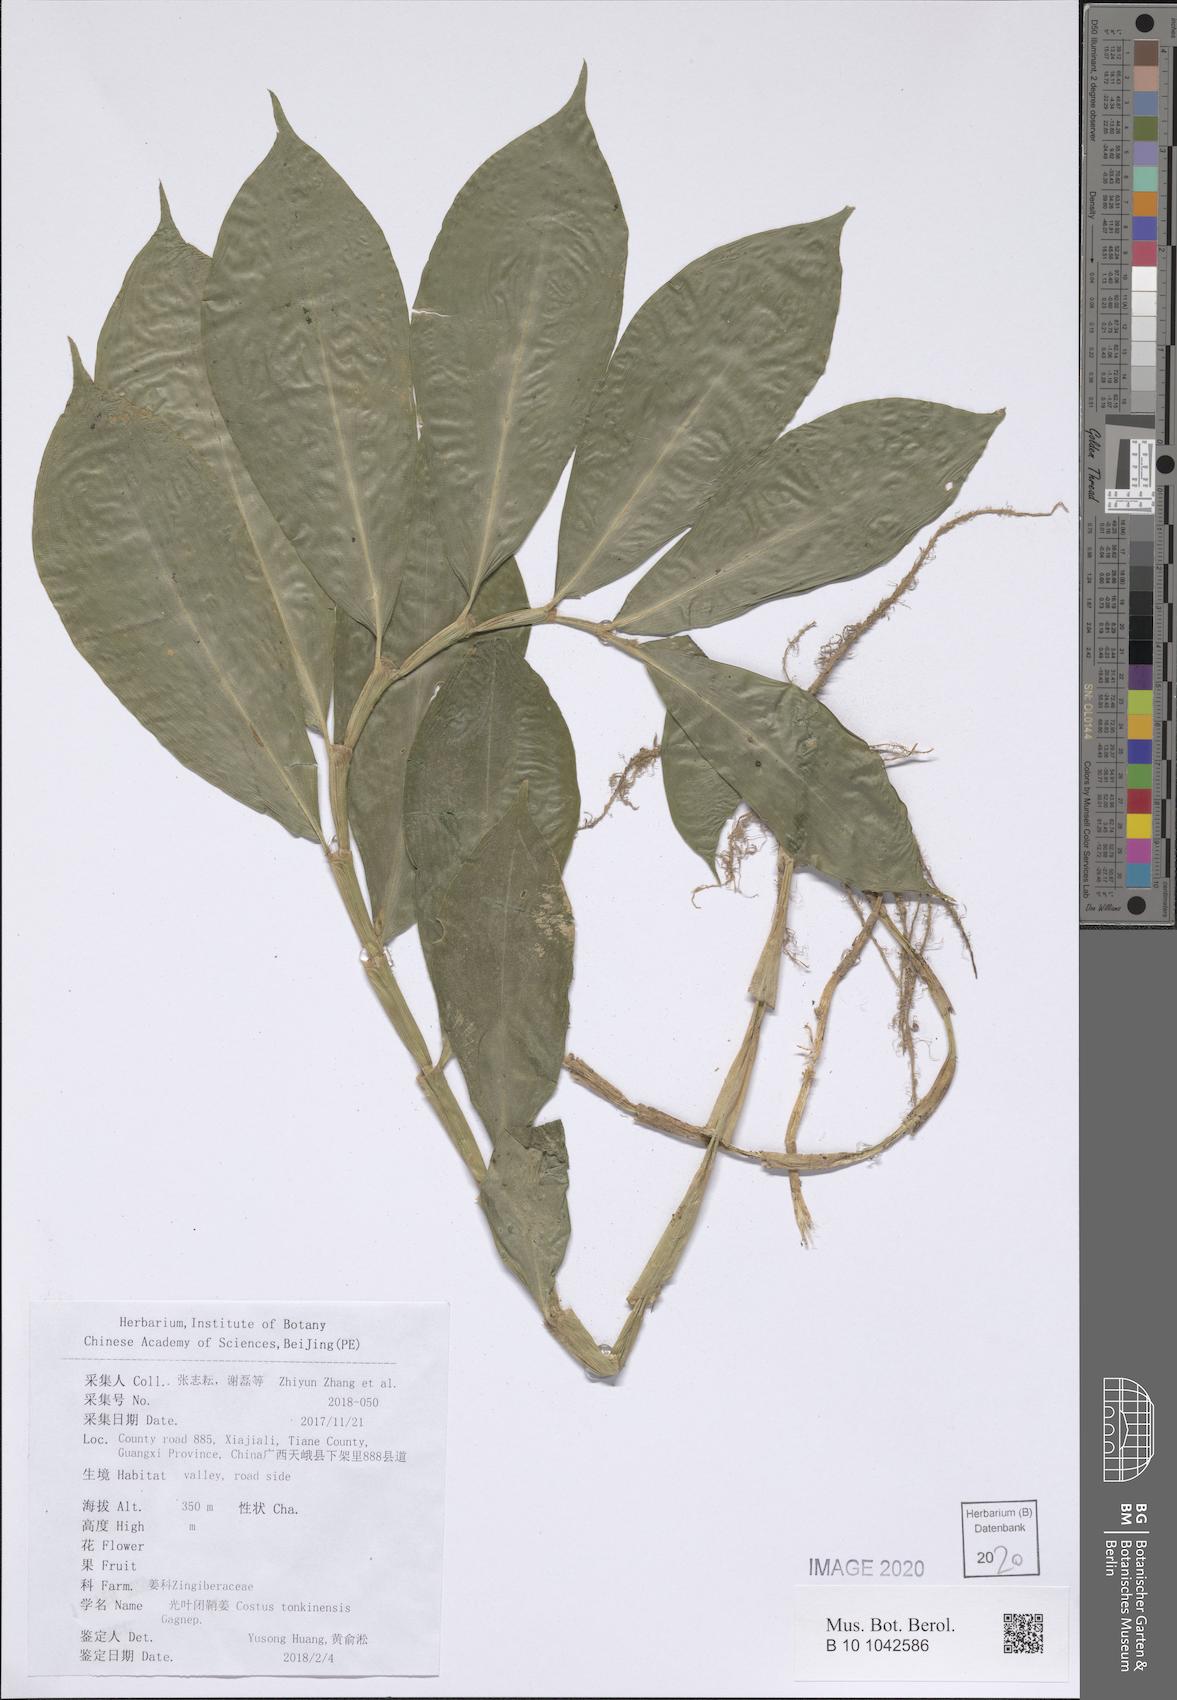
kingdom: Plantae
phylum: Tracheophyta
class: Liliopsida
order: Zingiberales
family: Costaceae
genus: Costus
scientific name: Costus tonkinensis
